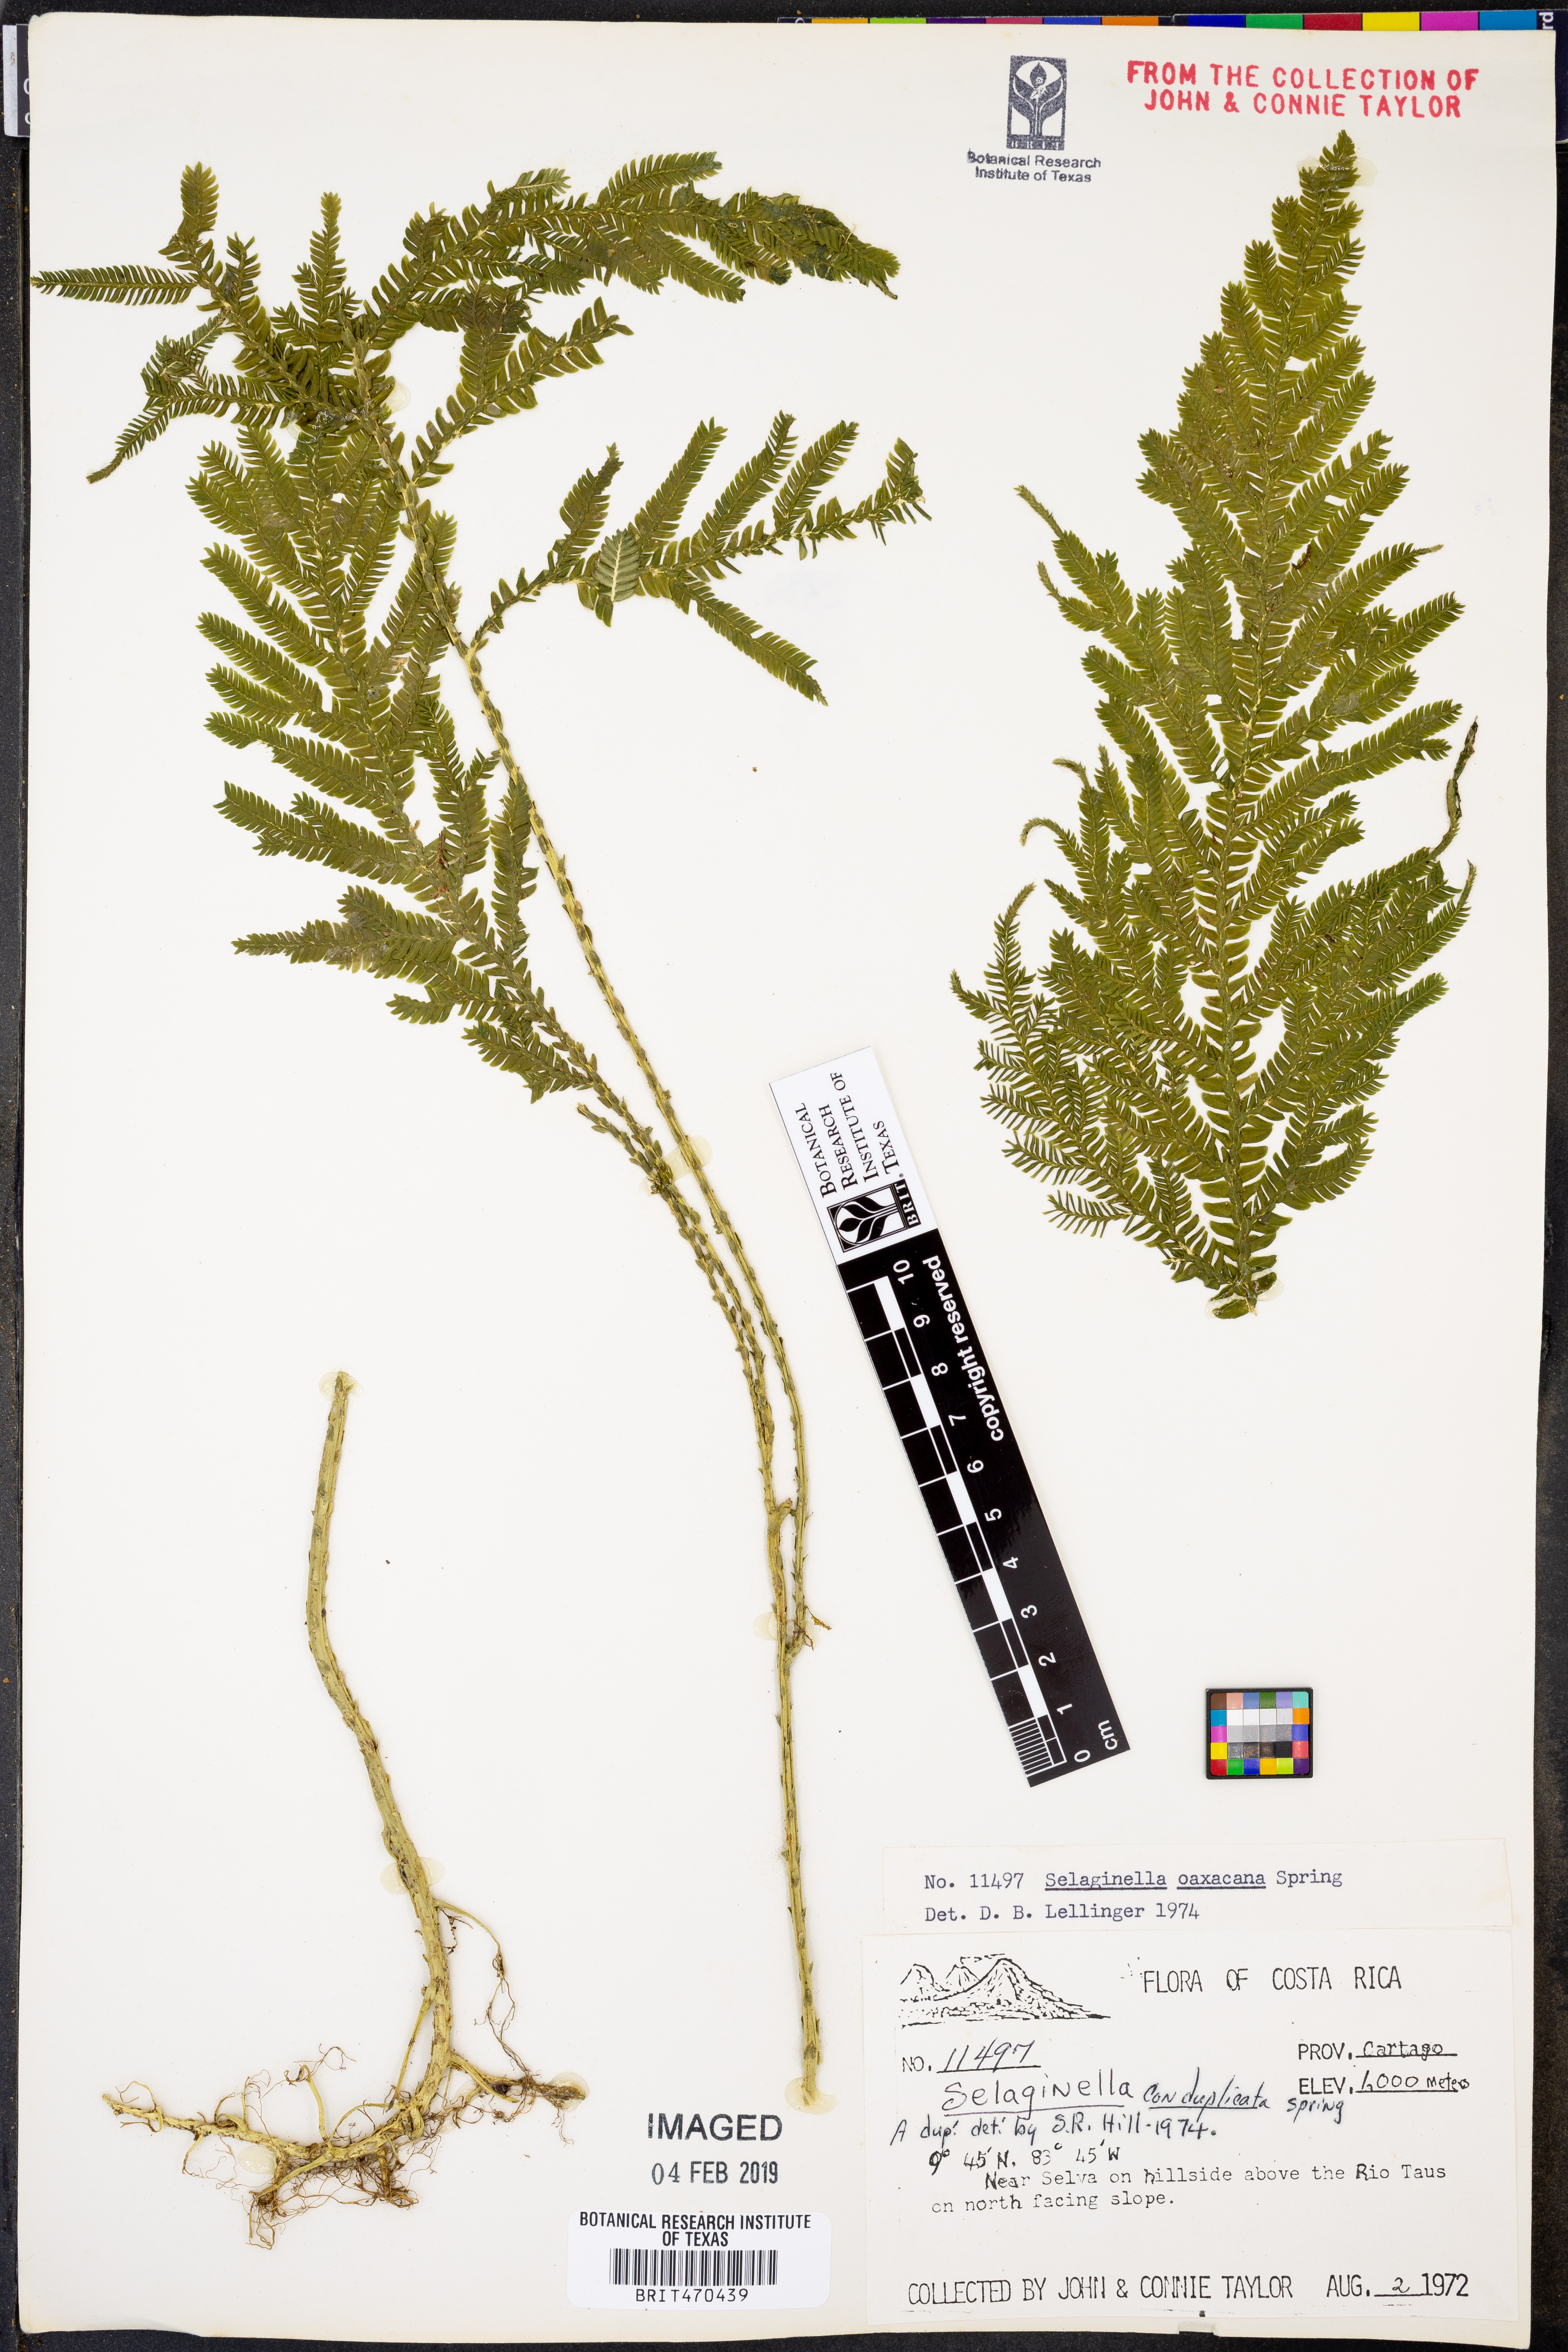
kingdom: Plantae
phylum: Tracheophyta
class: Lycopodiopsida
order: Selaginellales
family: Selaginellaceae
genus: Selaginella
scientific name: Selaginella oaxacana
